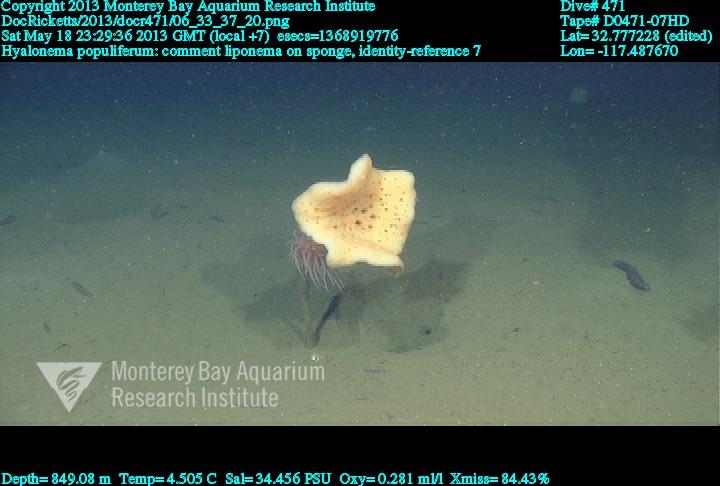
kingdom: Animalia
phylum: Porifera
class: Hexactinellida
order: Amphidiscosida
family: Hyalonematidae
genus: Hyalonema
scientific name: Hyalonema populiferum
